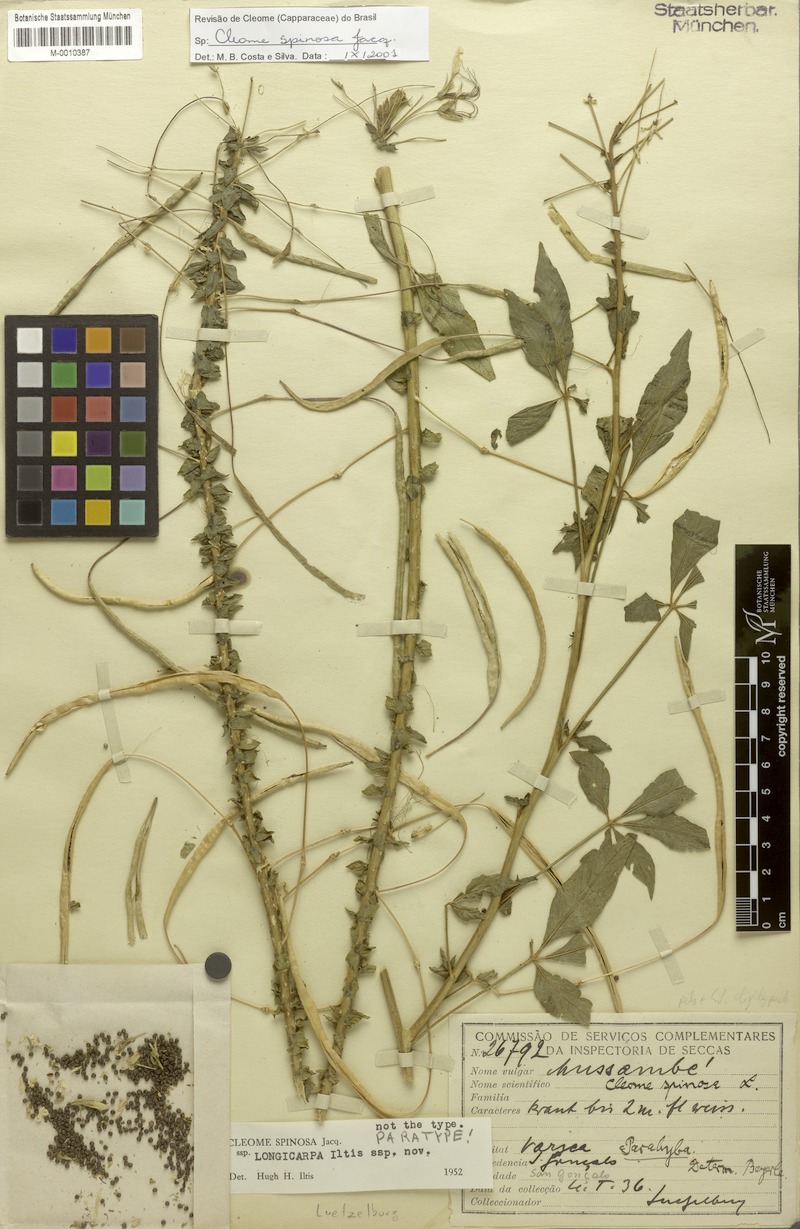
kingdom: Plantae
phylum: Tracheophyta
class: Magnoliopsida
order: Brassicales
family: Cleomaceae
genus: Tarenaya
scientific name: Tarenaya spinosa
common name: Spiny spiderflower
